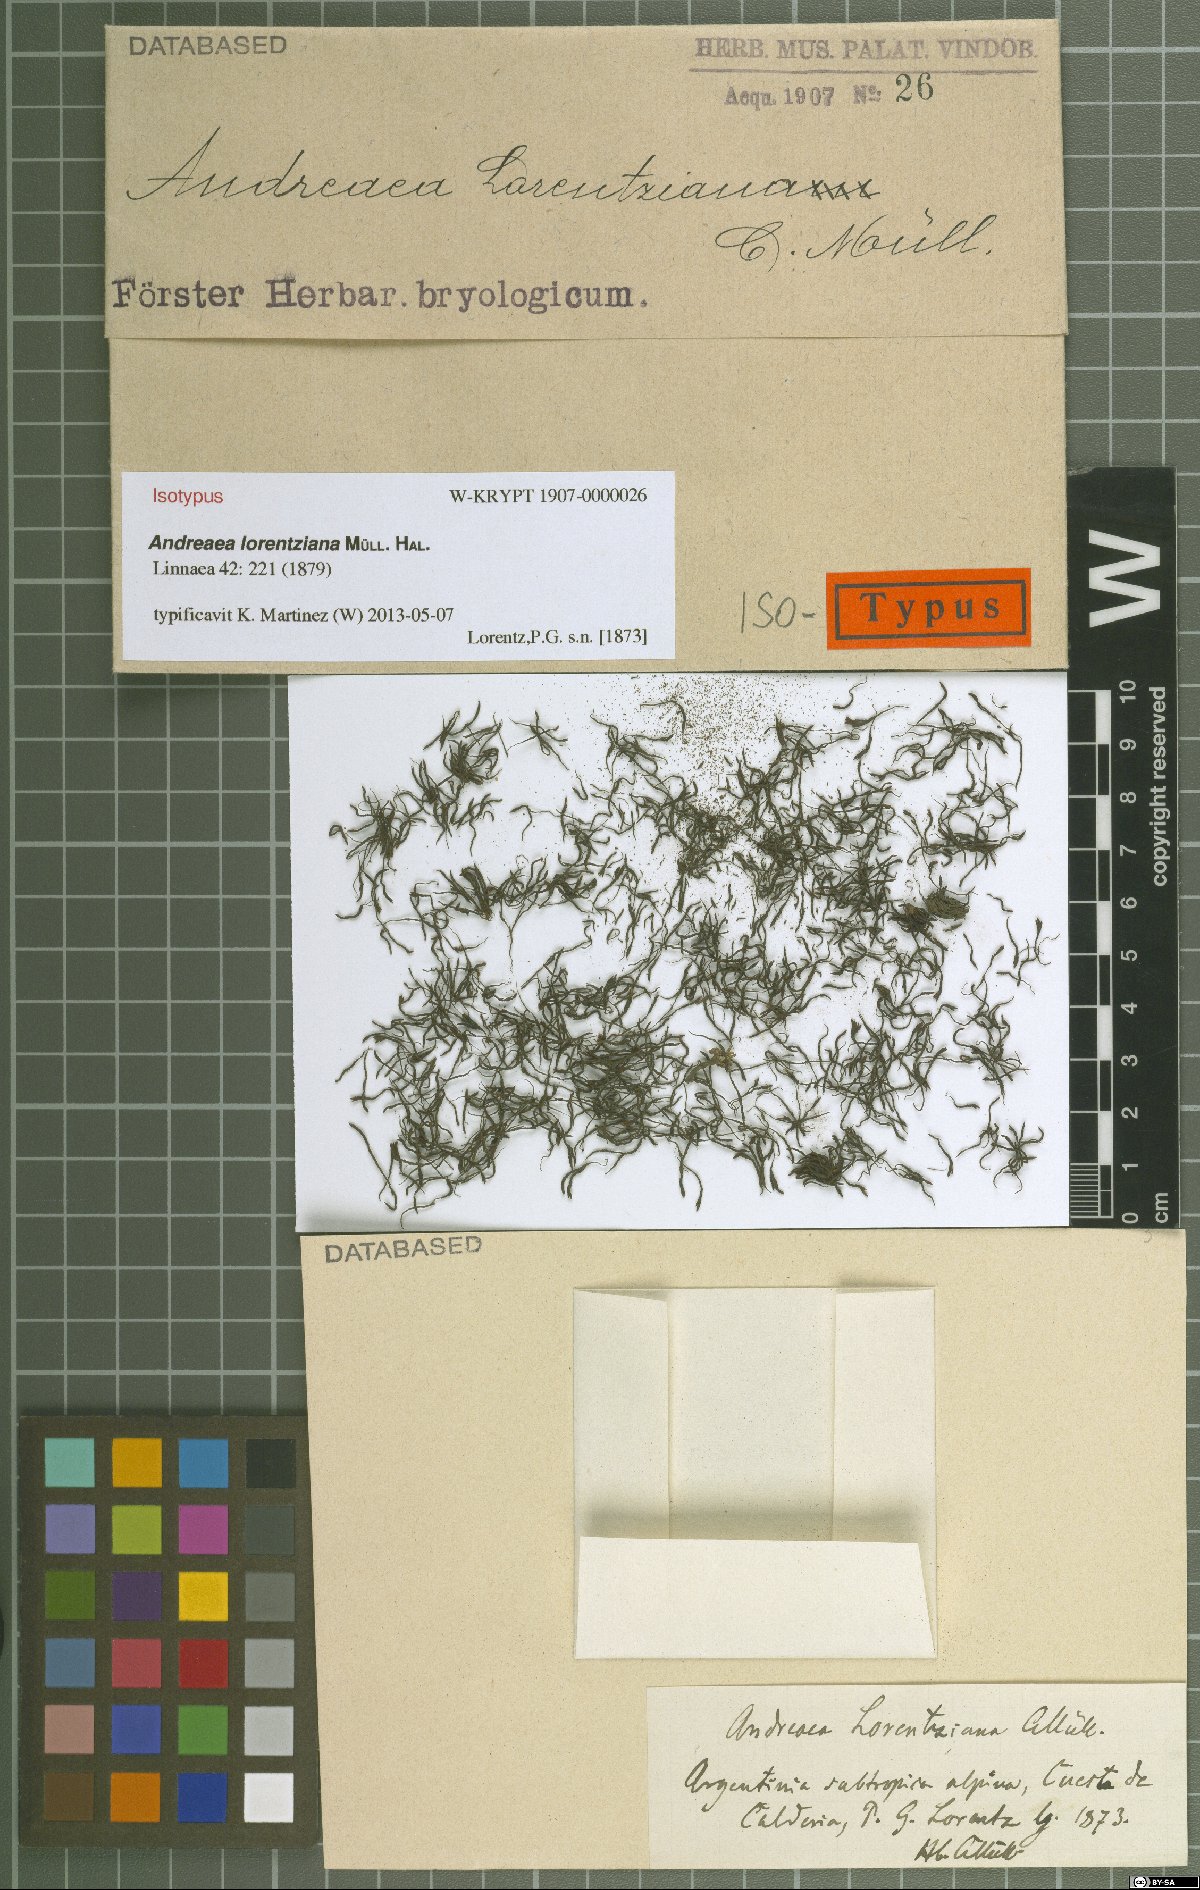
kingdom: Plantae
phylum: Bryophyta
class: Andreaeopsida
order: Andreaeales
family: Andreaeaceae
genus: Andreaea
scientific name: Andreaea lorentziana
